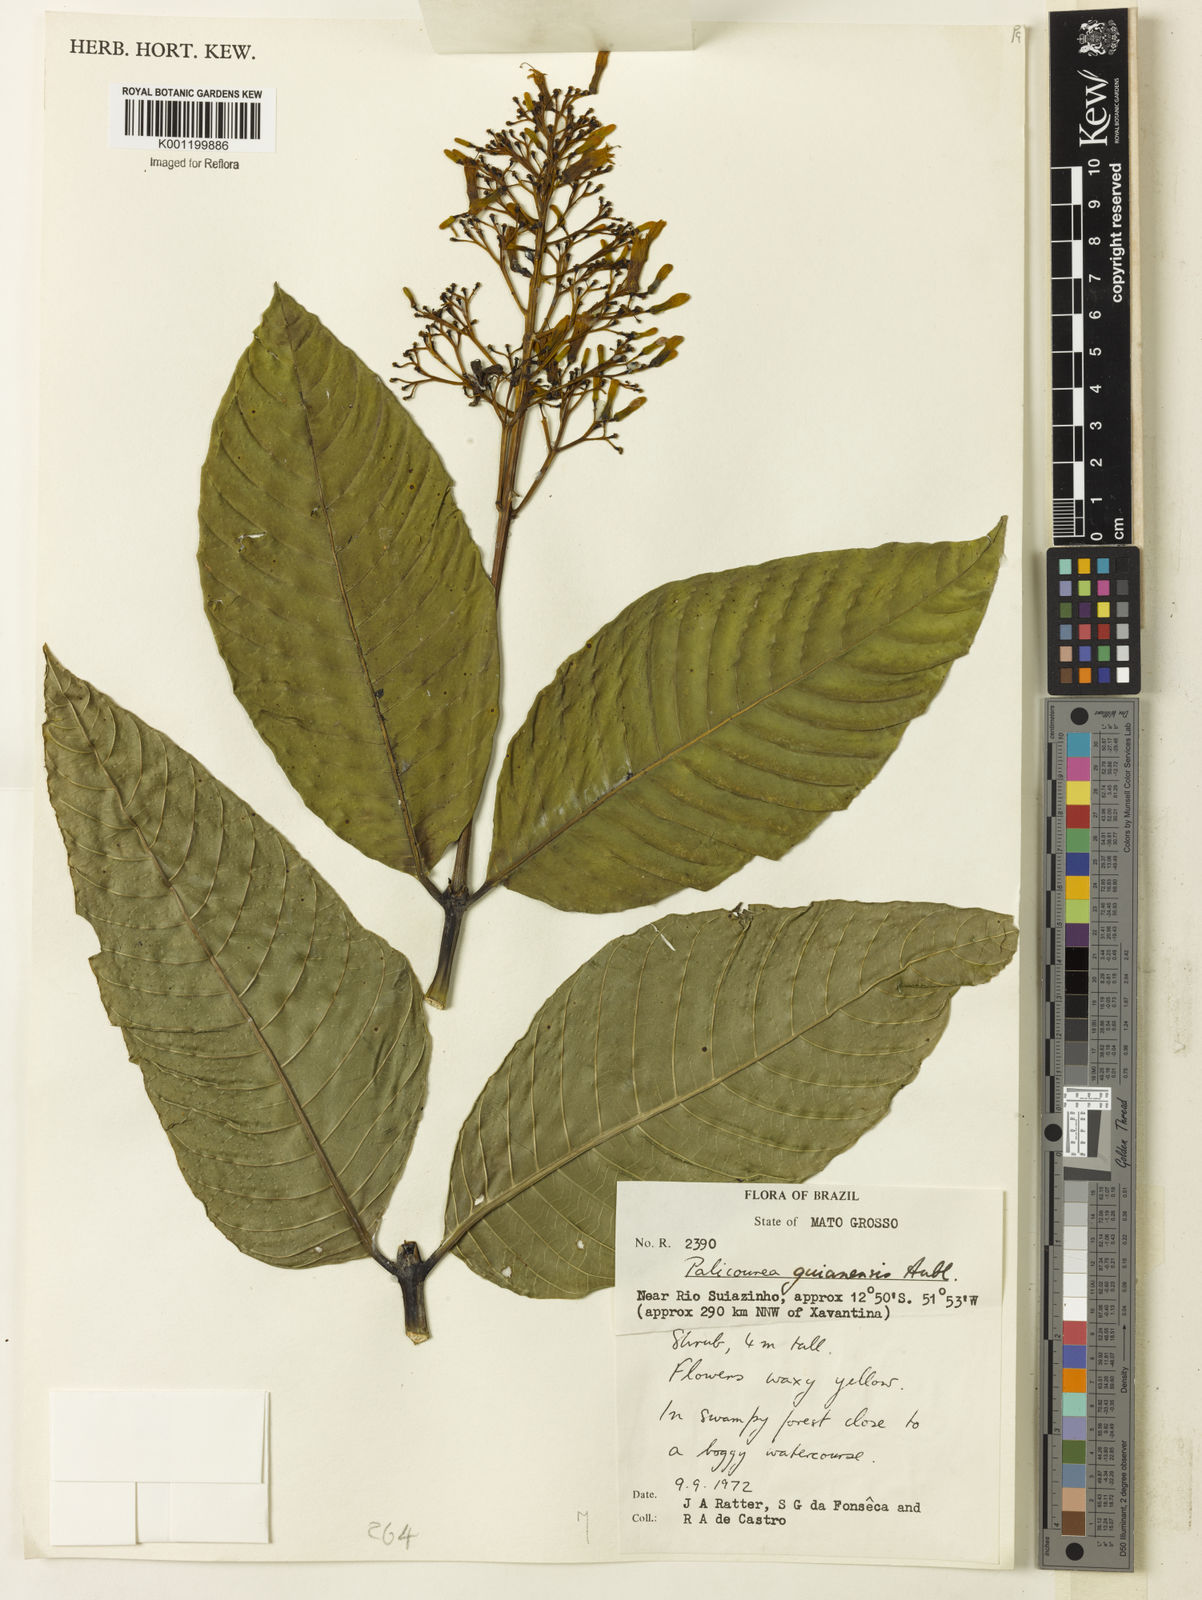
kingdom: Plantae
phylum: Tracheophyta
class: Magnoliopsida
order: Gentianales
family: Rubiaceae
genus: Palicourea
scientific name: Palicourea guianensis
